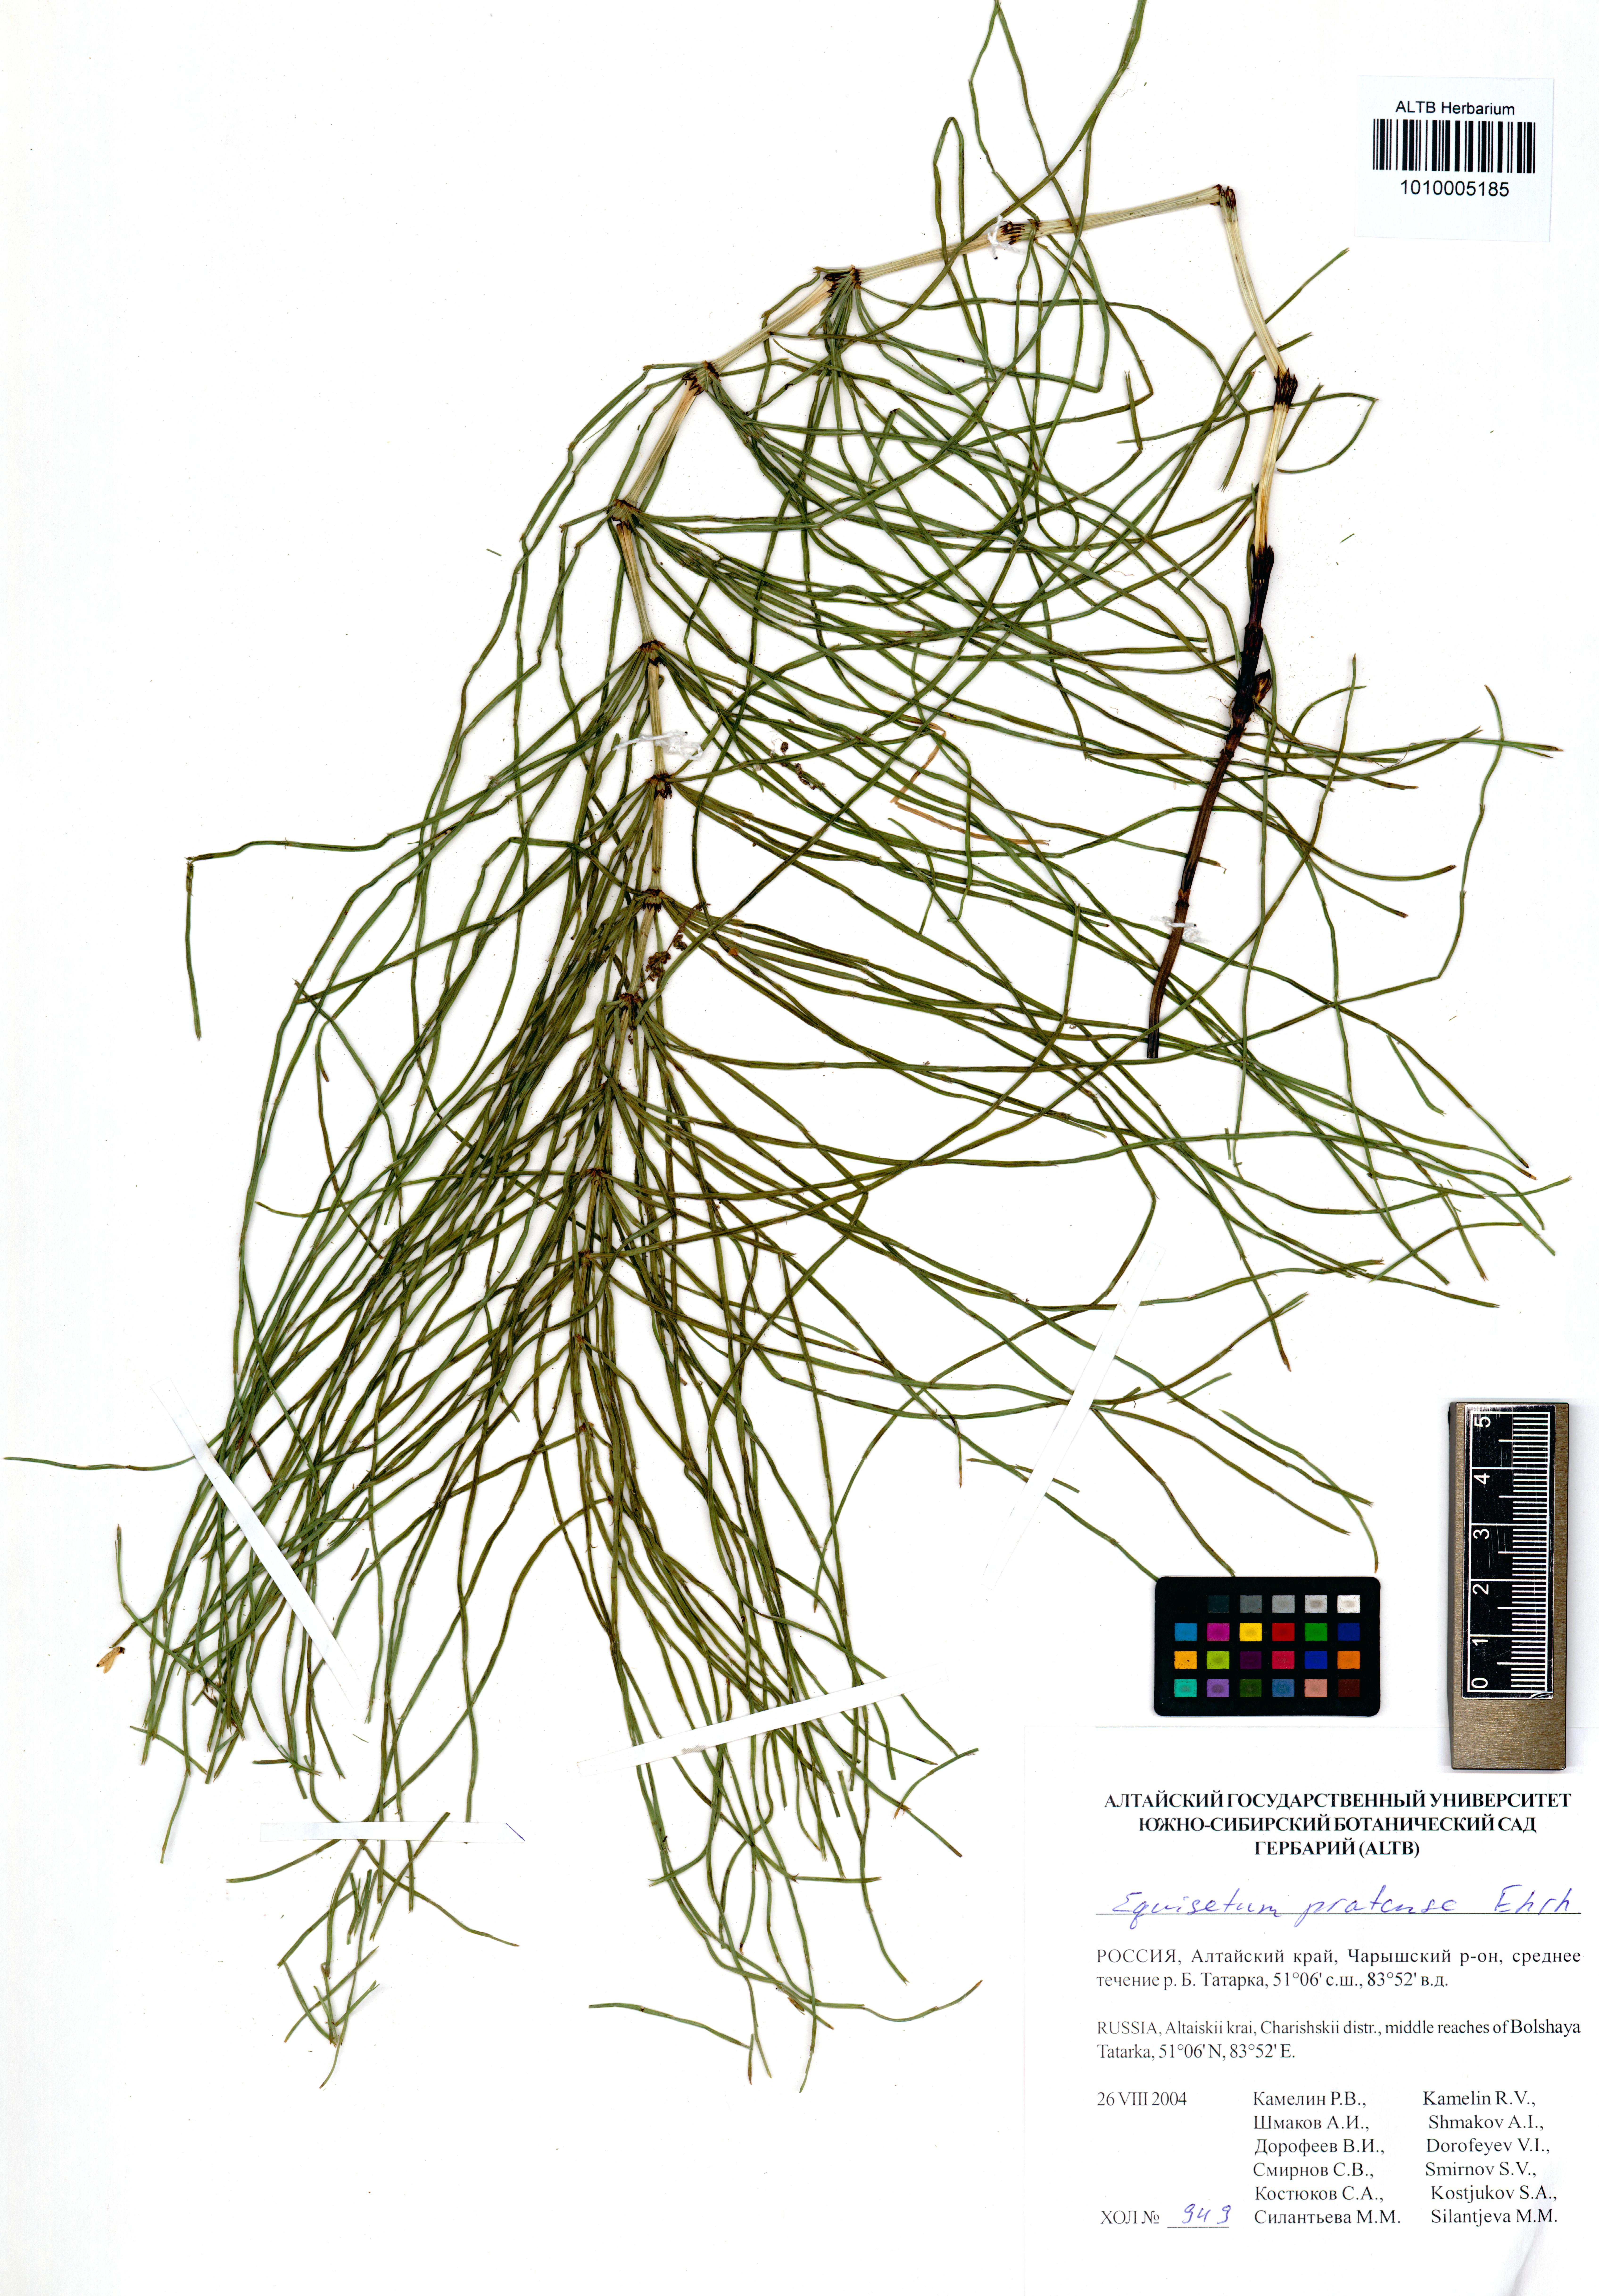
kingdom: Plantae
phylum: Tracheophyta
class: Polypodiopsida
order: Equisetales
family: Equisetaceae
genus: Equisetum
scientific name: Equisetum pratense
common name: Meadow horsetail
